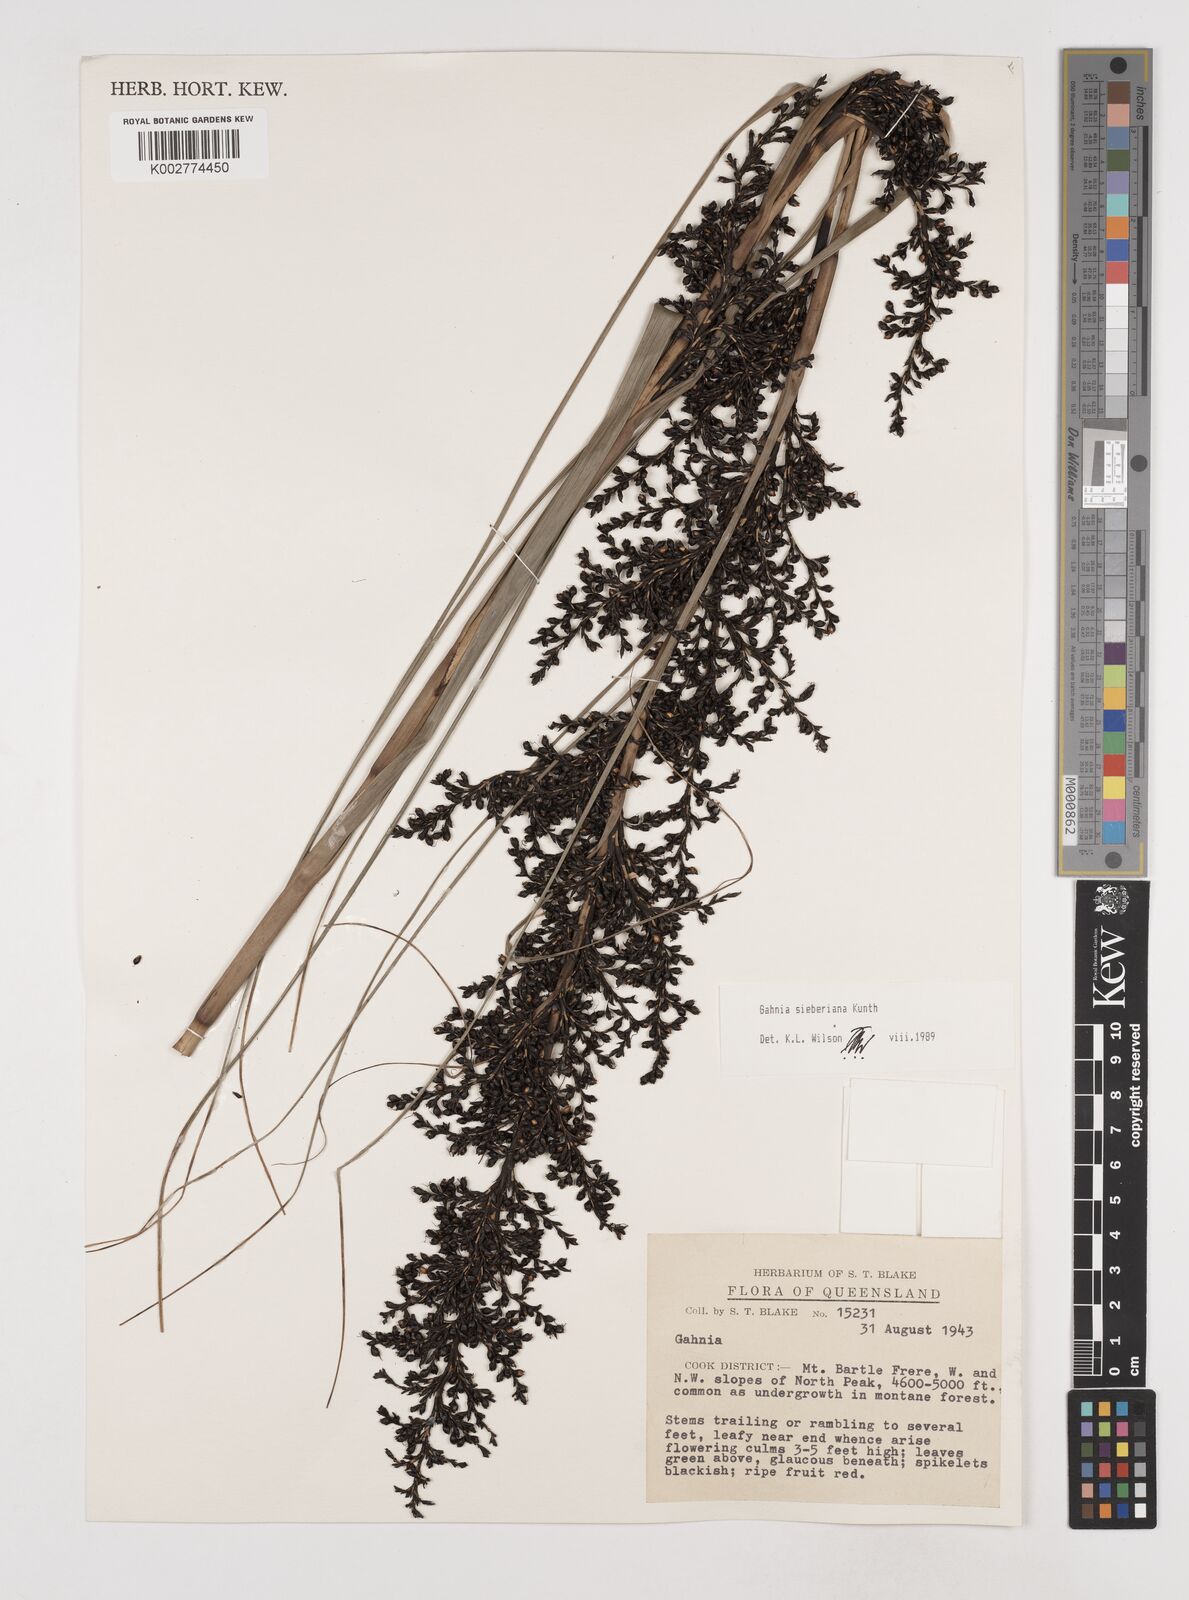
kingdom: Plantae
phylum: Tracheophyta
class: Liliopsida
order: Poales
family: Cyperaceae
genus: Gahnia
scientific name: Gahnia sieberiana
